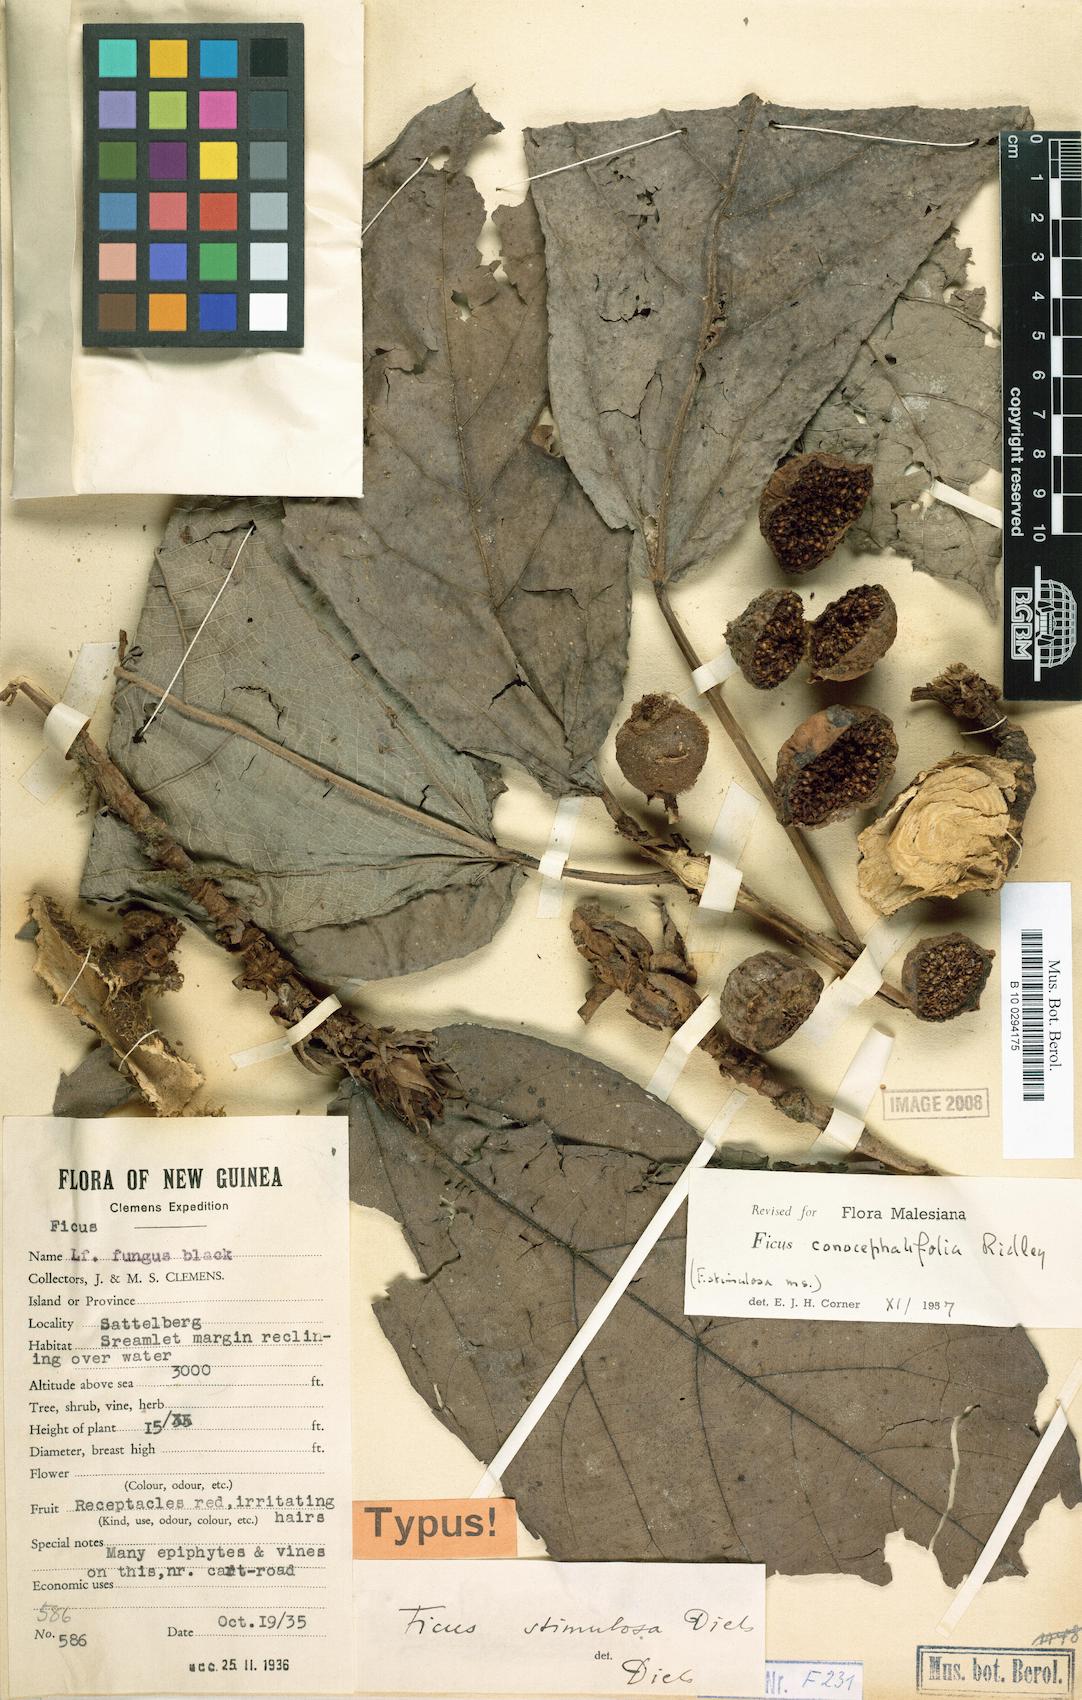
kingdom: Plantae
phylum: Tracheophyta
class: Magnoliopsida
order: Rosales
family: Moraceae
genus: Ficus
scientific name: Ficus conocephalifolia
